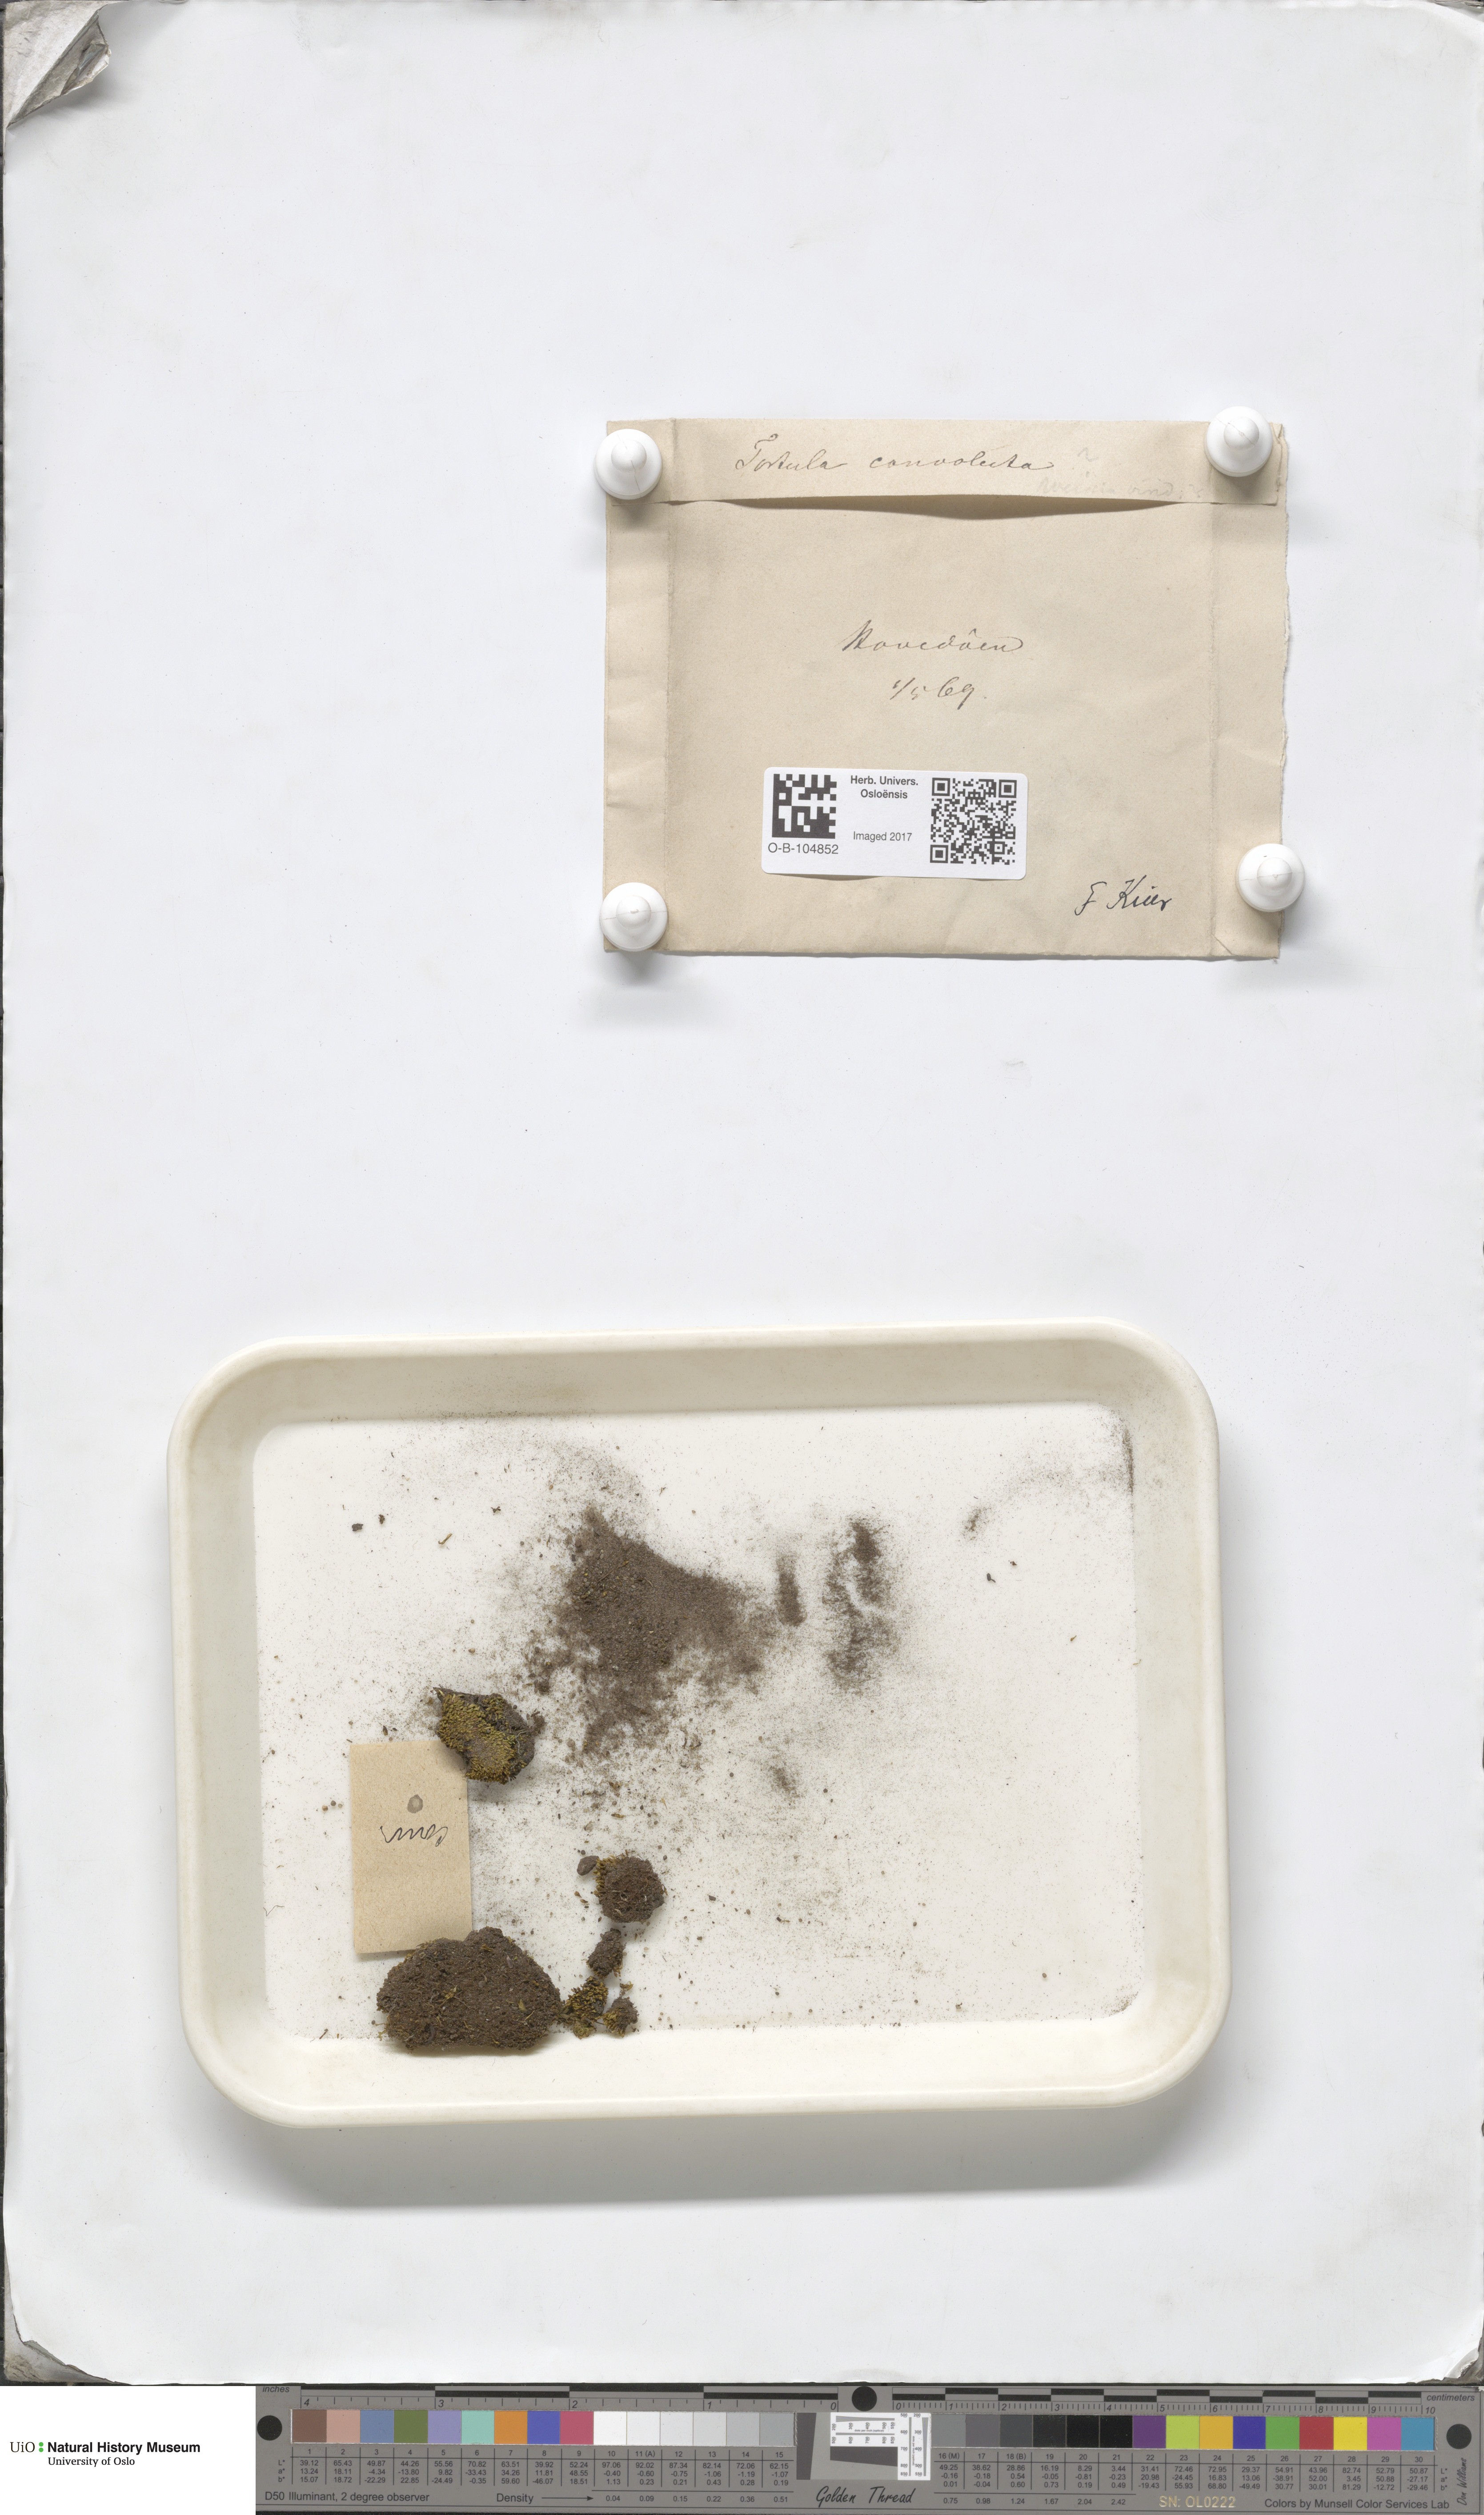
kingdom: Plantae
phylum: Bryophyta
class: Bryopsida
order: Pottiales
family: Pottiaceae
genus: Streblotrichum
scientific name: Streblotrichum convolutum
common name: Lesser bird's-claw beard-moss
